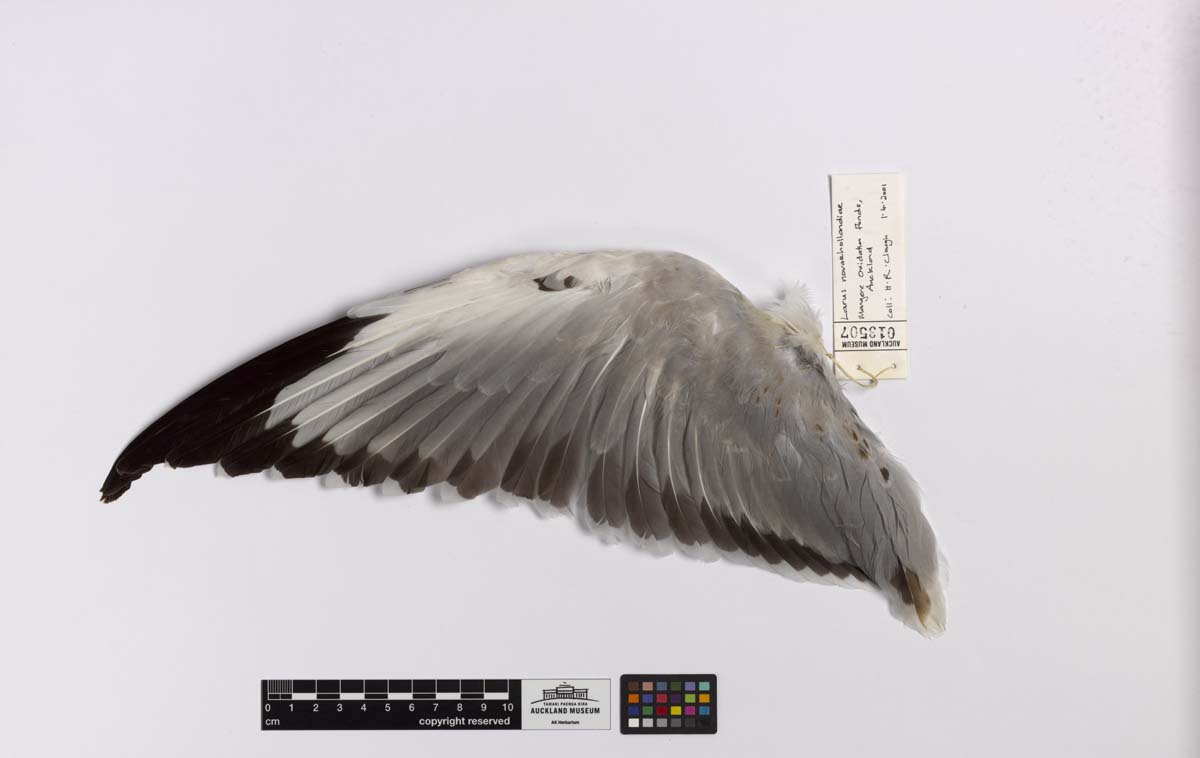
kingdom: Animalia
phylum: Chordata
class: Aves
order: Charadriiformes
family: Laridae
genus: Chroicocephalus
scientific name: Chroicocephalus novaehollandiae
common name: Silver gull
